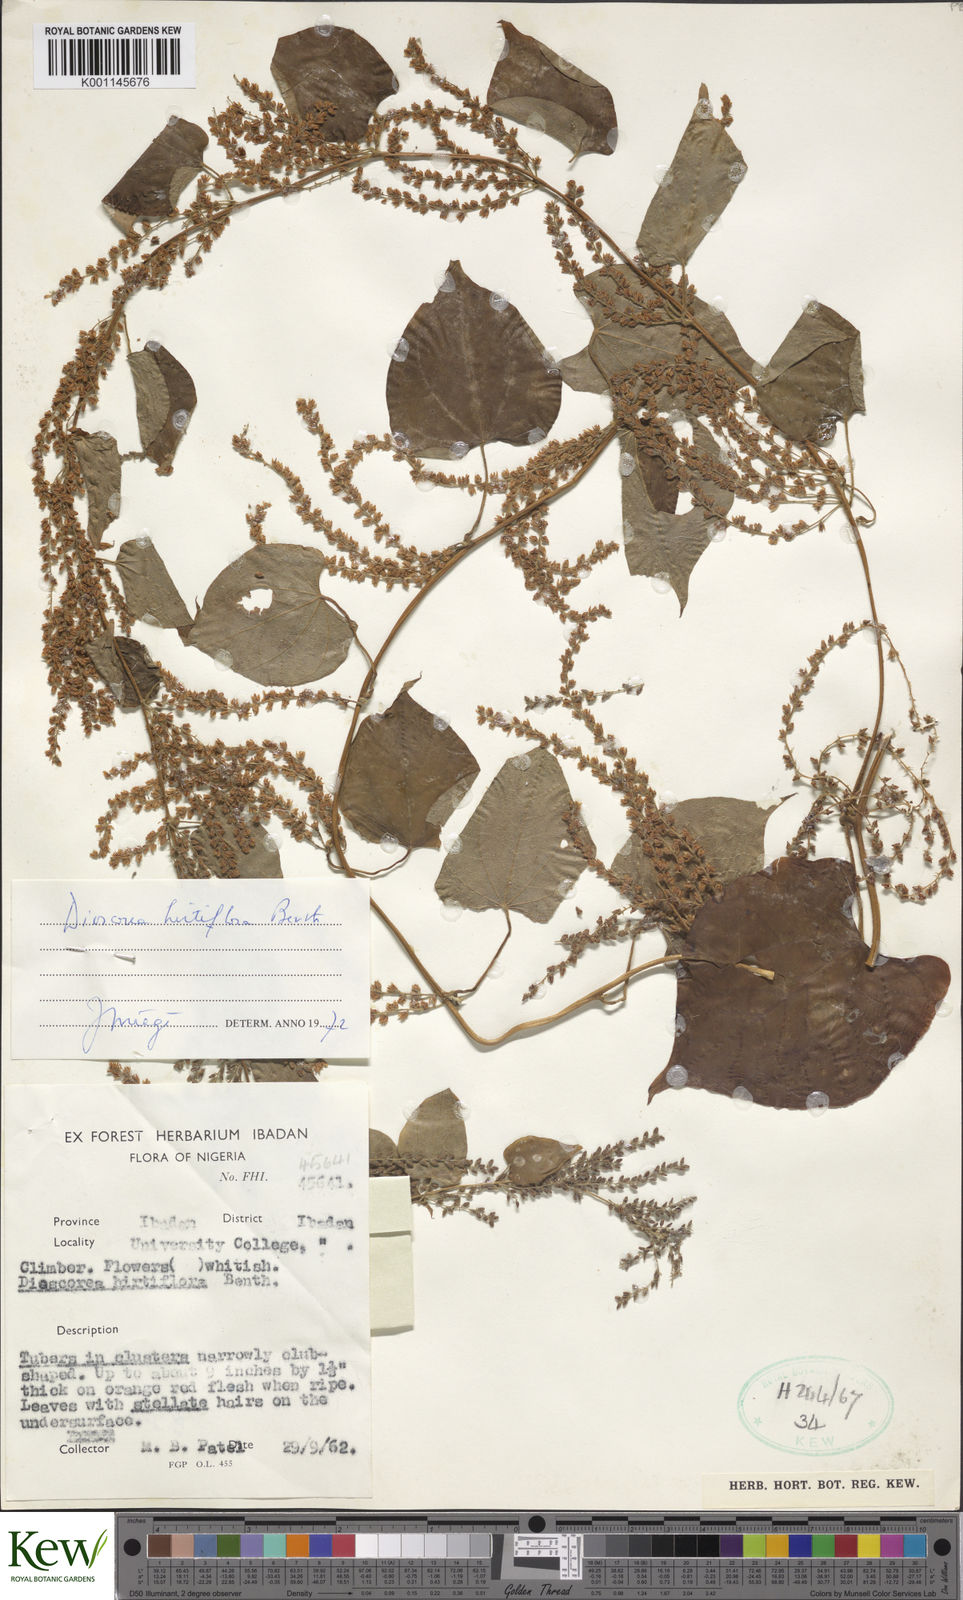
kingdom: Plantae
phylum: Tracheophyta
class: Liliopsida
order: Dioscoreales
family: Dioscoreaceae
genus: Dioscorea
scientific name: Dioscorea hirtiflora
